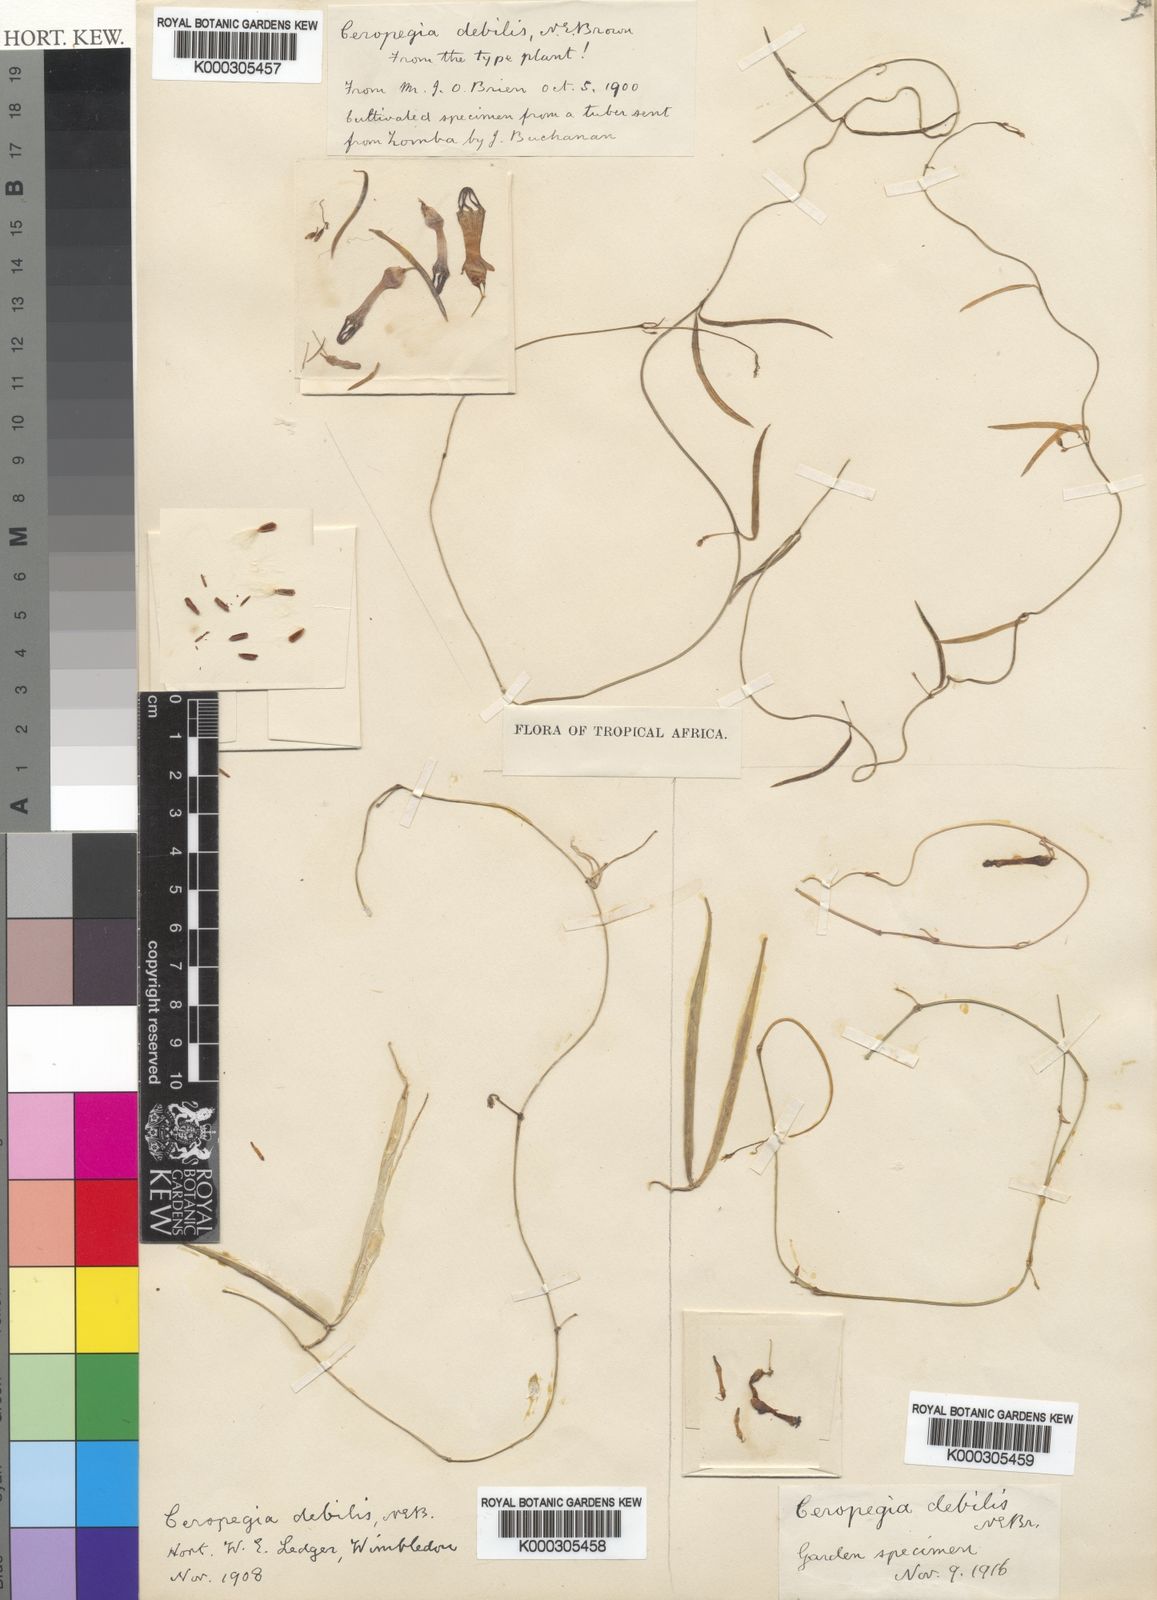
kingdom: Plantae
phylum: Tracheophyta
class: Magnoliopsida
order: Gentianales
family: Apocynaceae
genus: Ceropegia
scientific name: Ceropegia linearis
